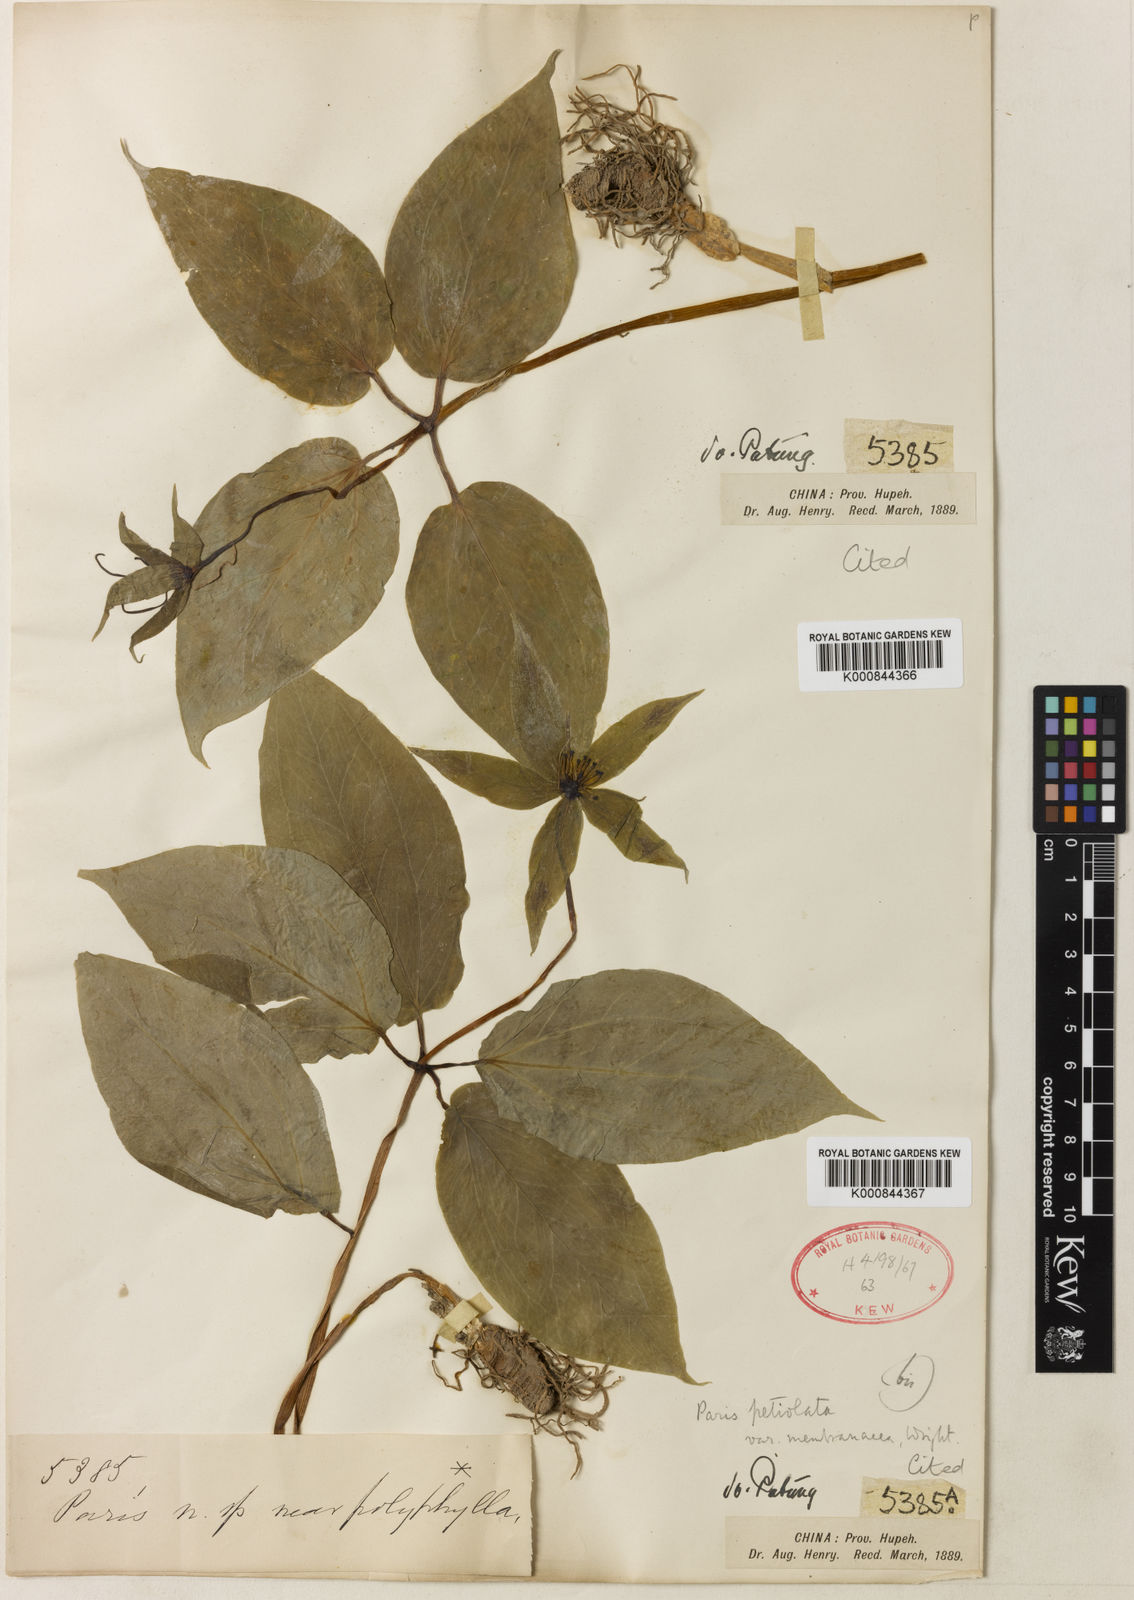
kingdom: Plantae
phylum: Tracheophyta
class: Liliopsida
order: Liliales
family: Melanthiaceae
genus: Paris
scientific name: Paris fargesii
